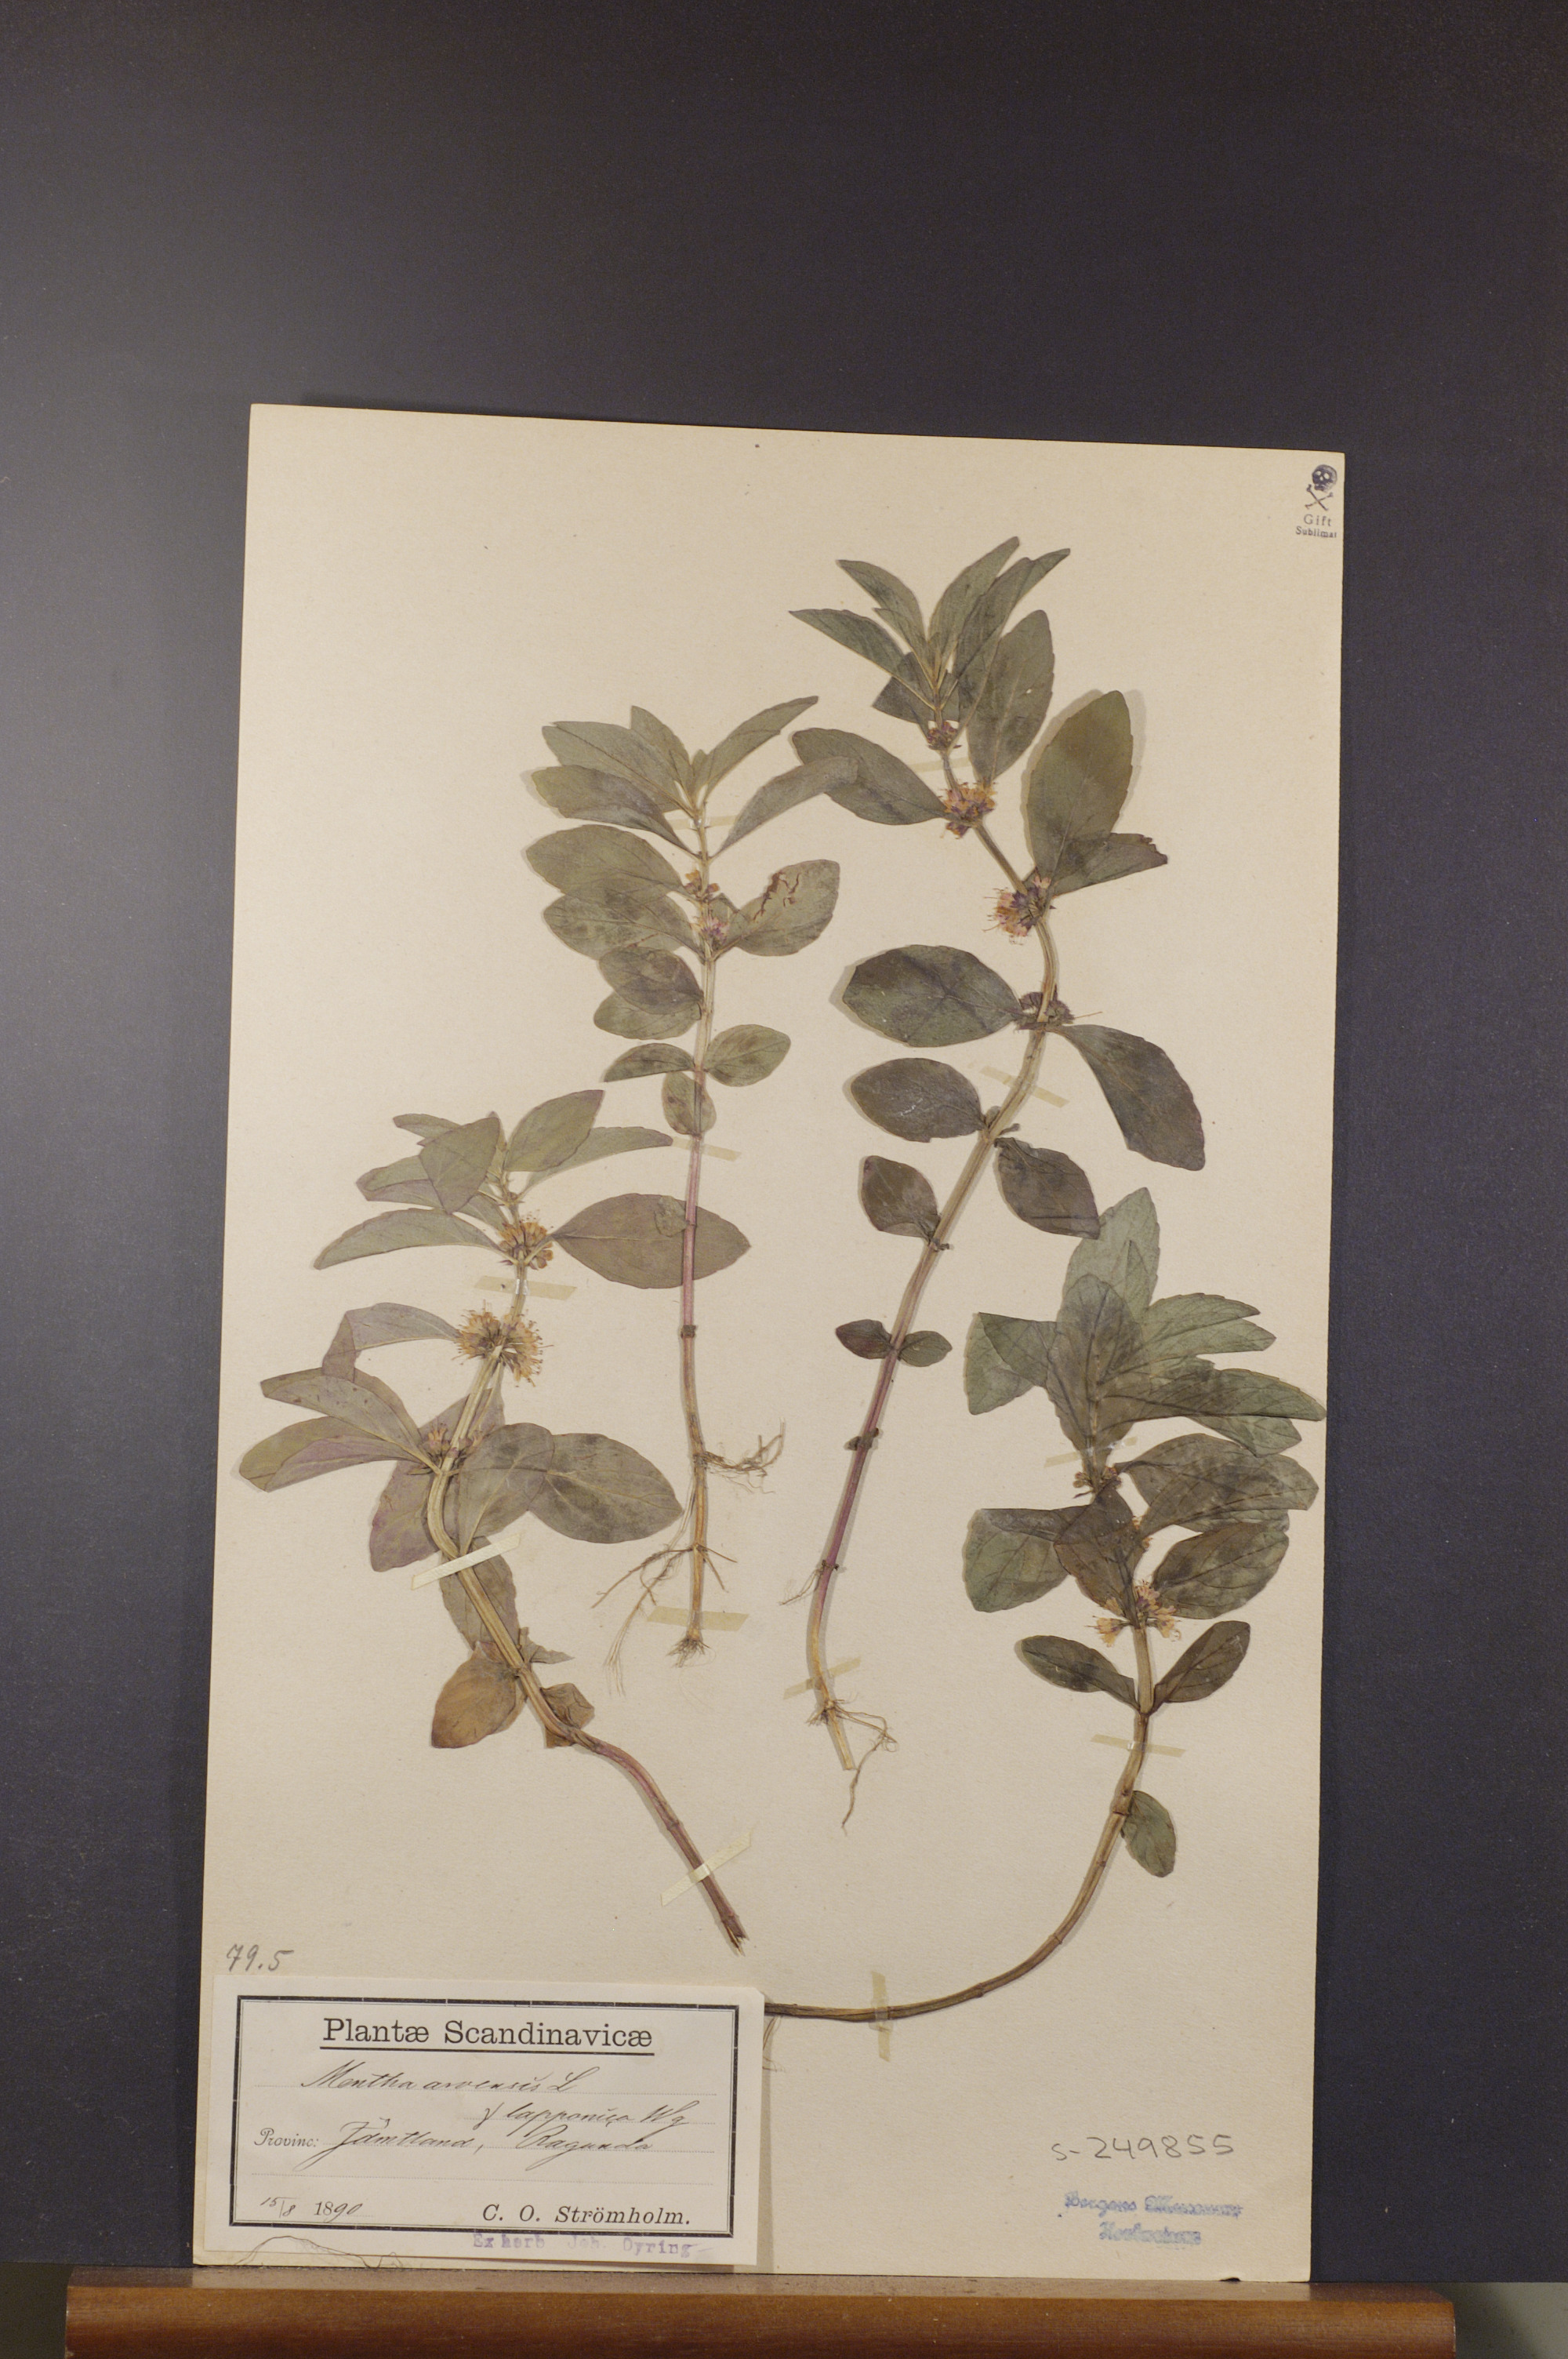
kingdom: Plantae
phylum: Tracheophyta
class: Magnoliopsida
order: Lamiales
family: Lamiaceae
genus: Mentha
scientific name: Mentha arvensis
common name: Corn mint
